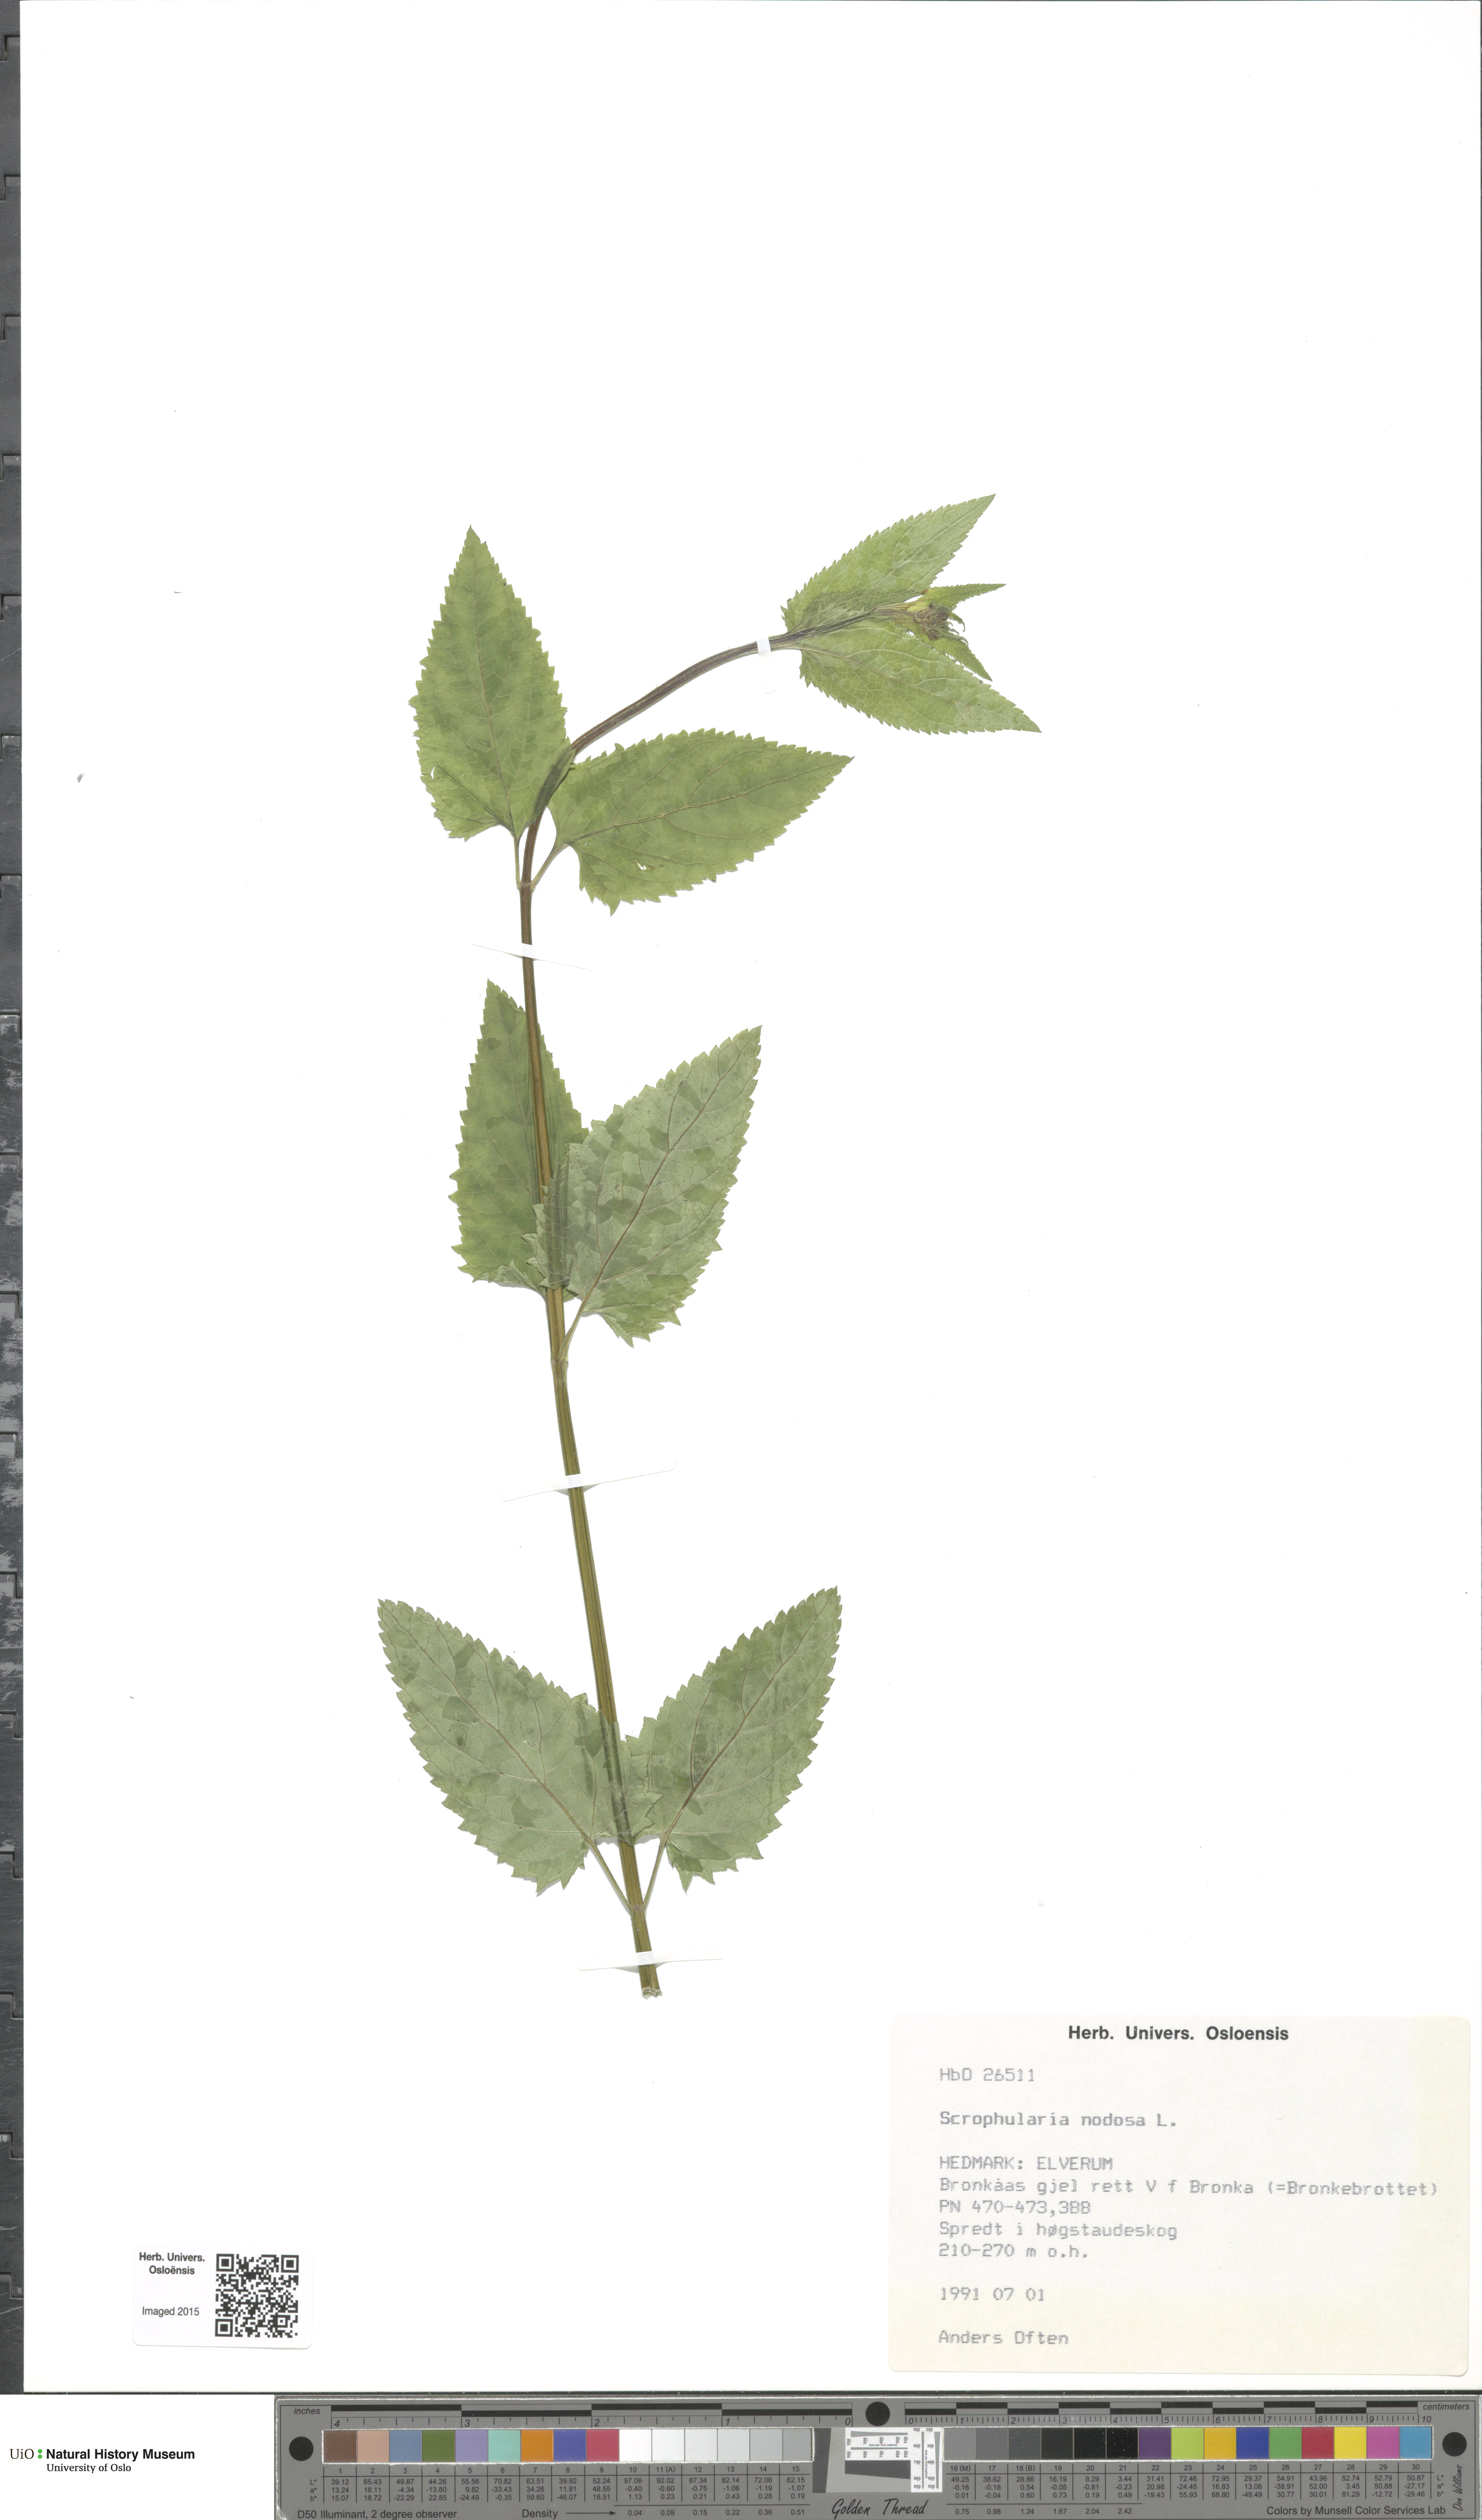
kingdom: Plantae
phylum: Tracheophyta
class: Magnoliopsida
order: Lamiales
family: Scrophulariaceae
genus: Scrophularia
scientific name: Scrophularia nodosa
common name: Common figwort
